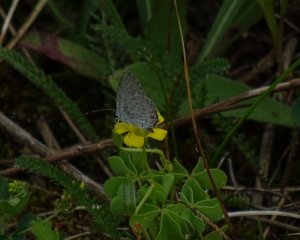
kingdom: Animalia
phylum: Arthropoda
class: Insecta
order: Lepidoptera
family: Lycaenidae
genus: Elkalyce
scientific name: Elkalyce comyntas
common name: Eastern Tailed-Blue
